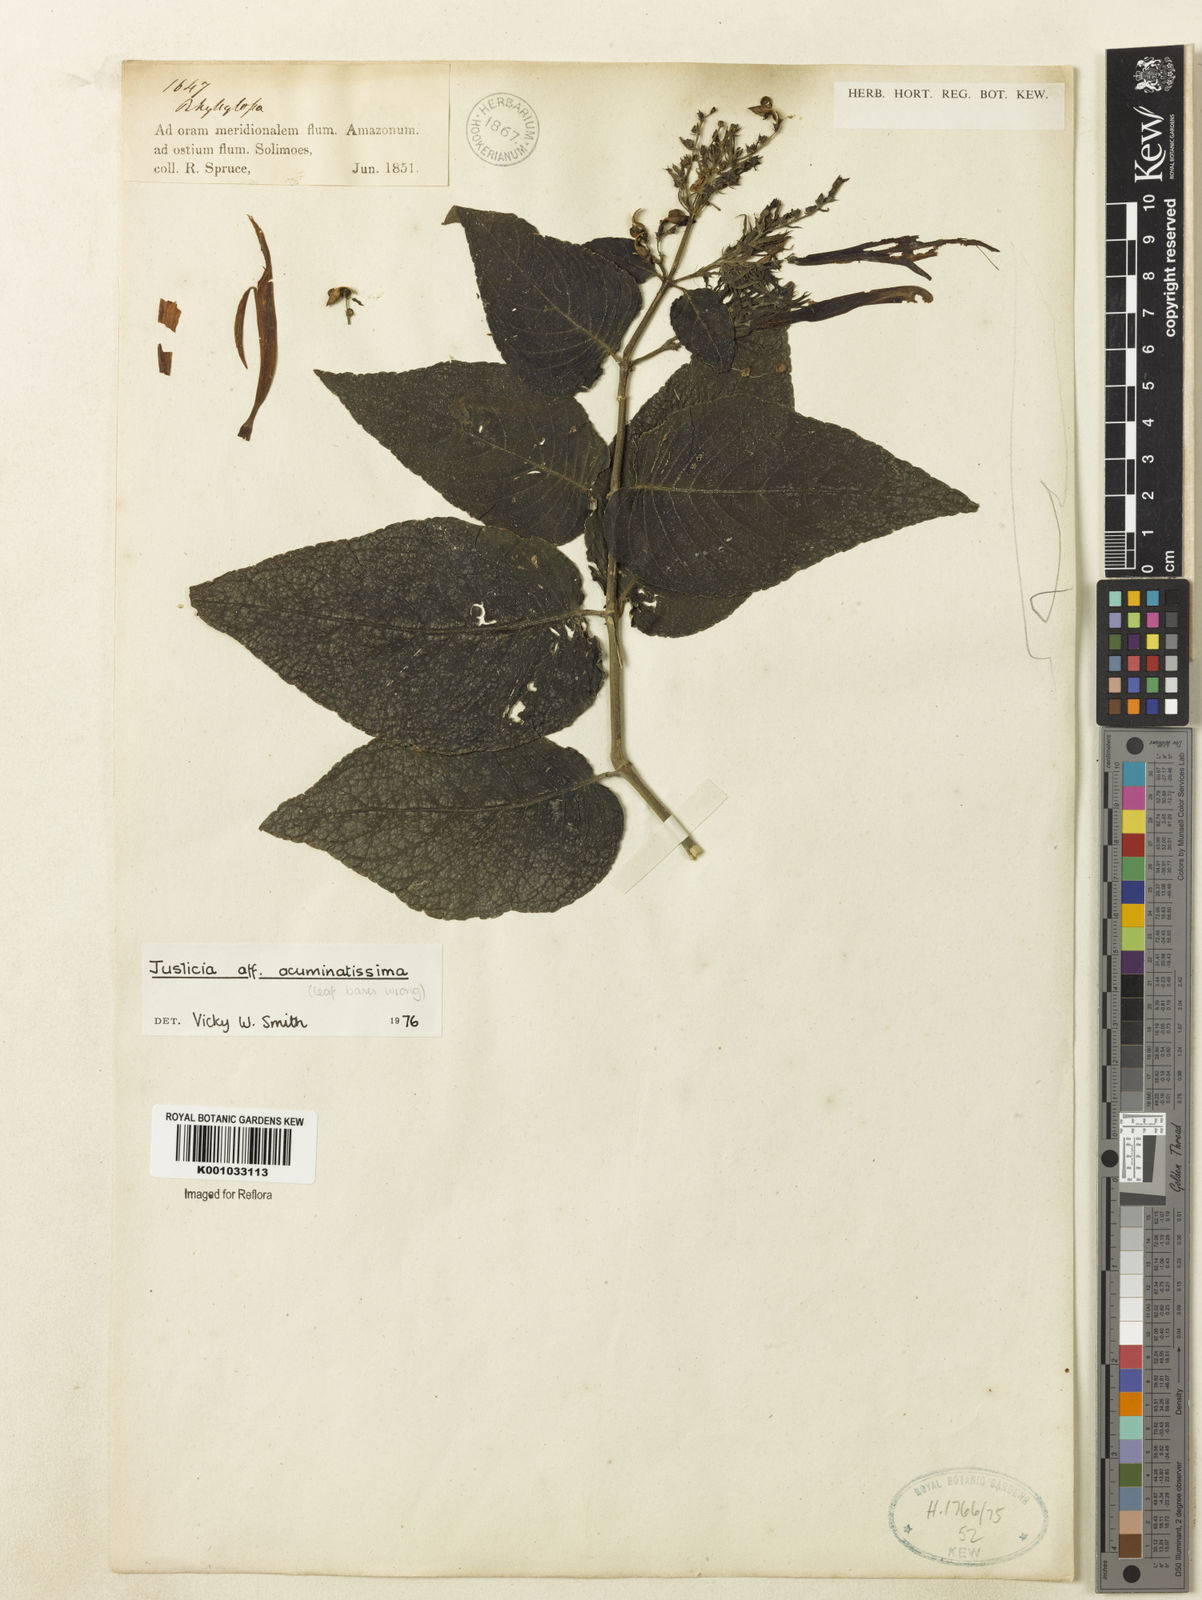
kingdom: Plantae
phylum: Tracheophyta
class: Magnoliopsida
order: Lamiales
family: Acanthaceae
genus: Dianthera
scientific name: Dianthera calycina
